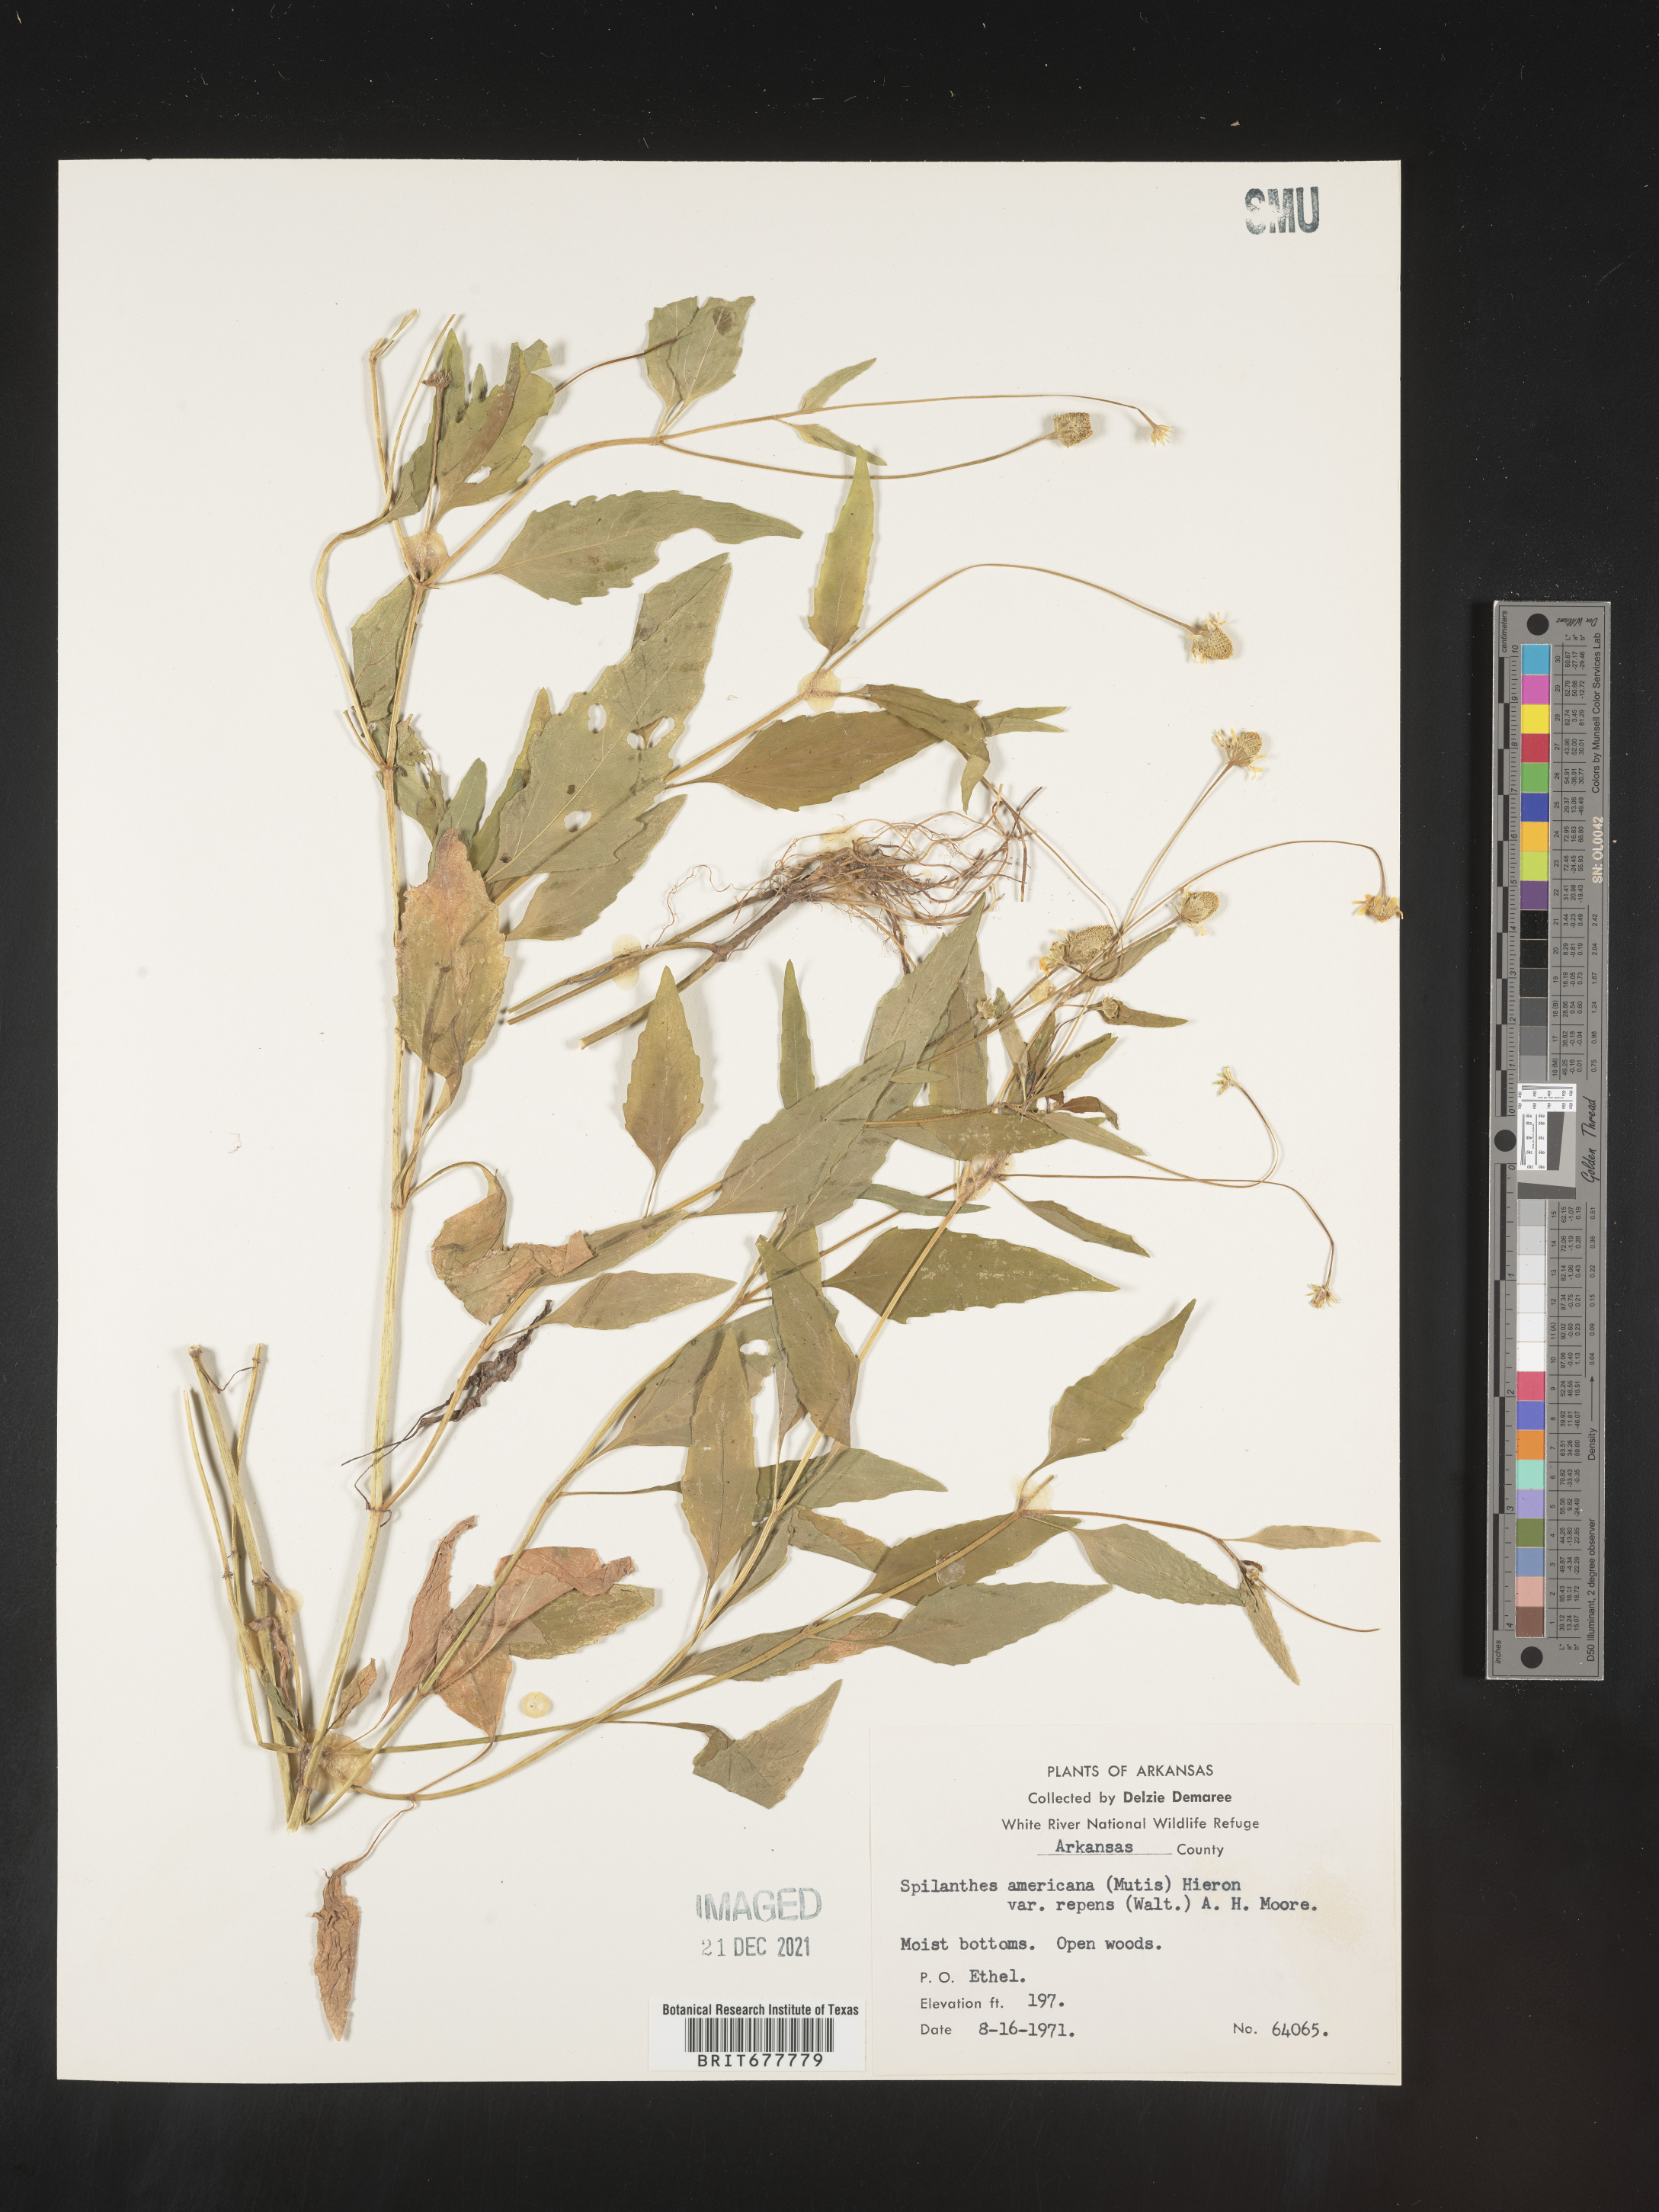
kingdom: Plantae
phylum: Tracheophyta
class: Magnoliopsida
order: Asterales
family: Asteraceae
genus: Spilanthes
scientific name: Spilanthes
